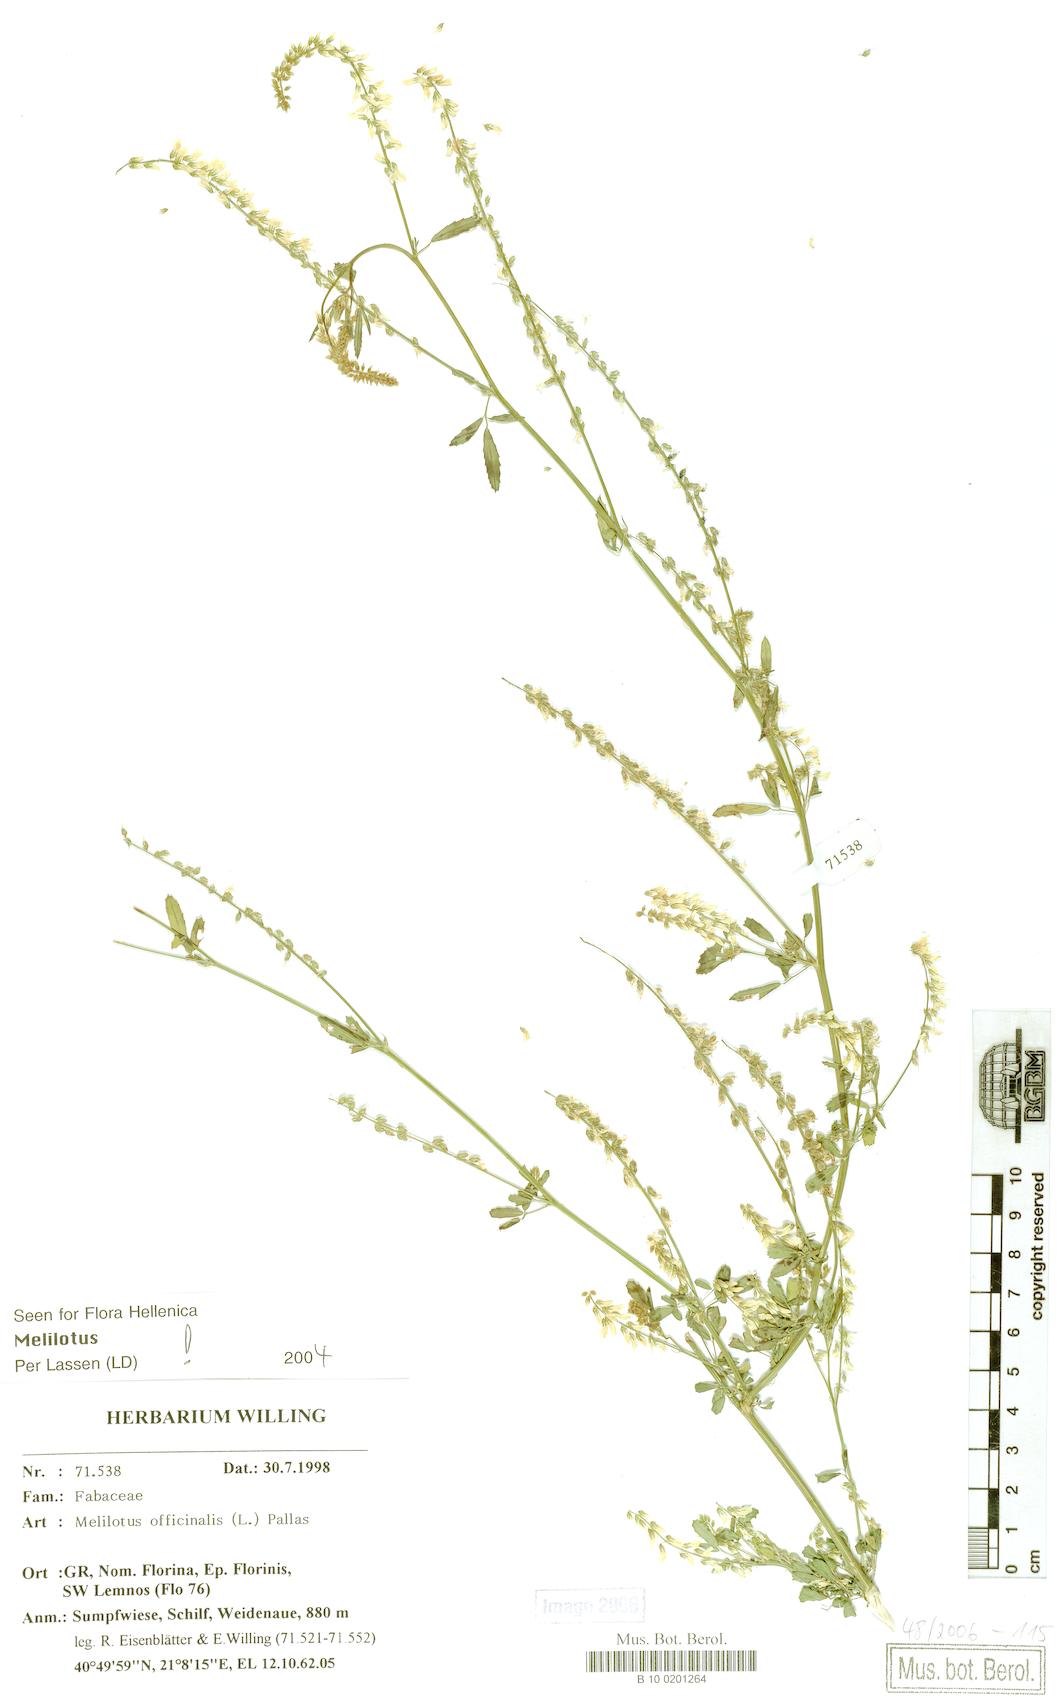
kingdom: Plantae
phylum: Tracheophyta
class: Magnoliopsida
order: Fabales
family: Fabaceae
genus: Melilotus
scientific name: Melilotus officinalis
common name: Sweetclover
